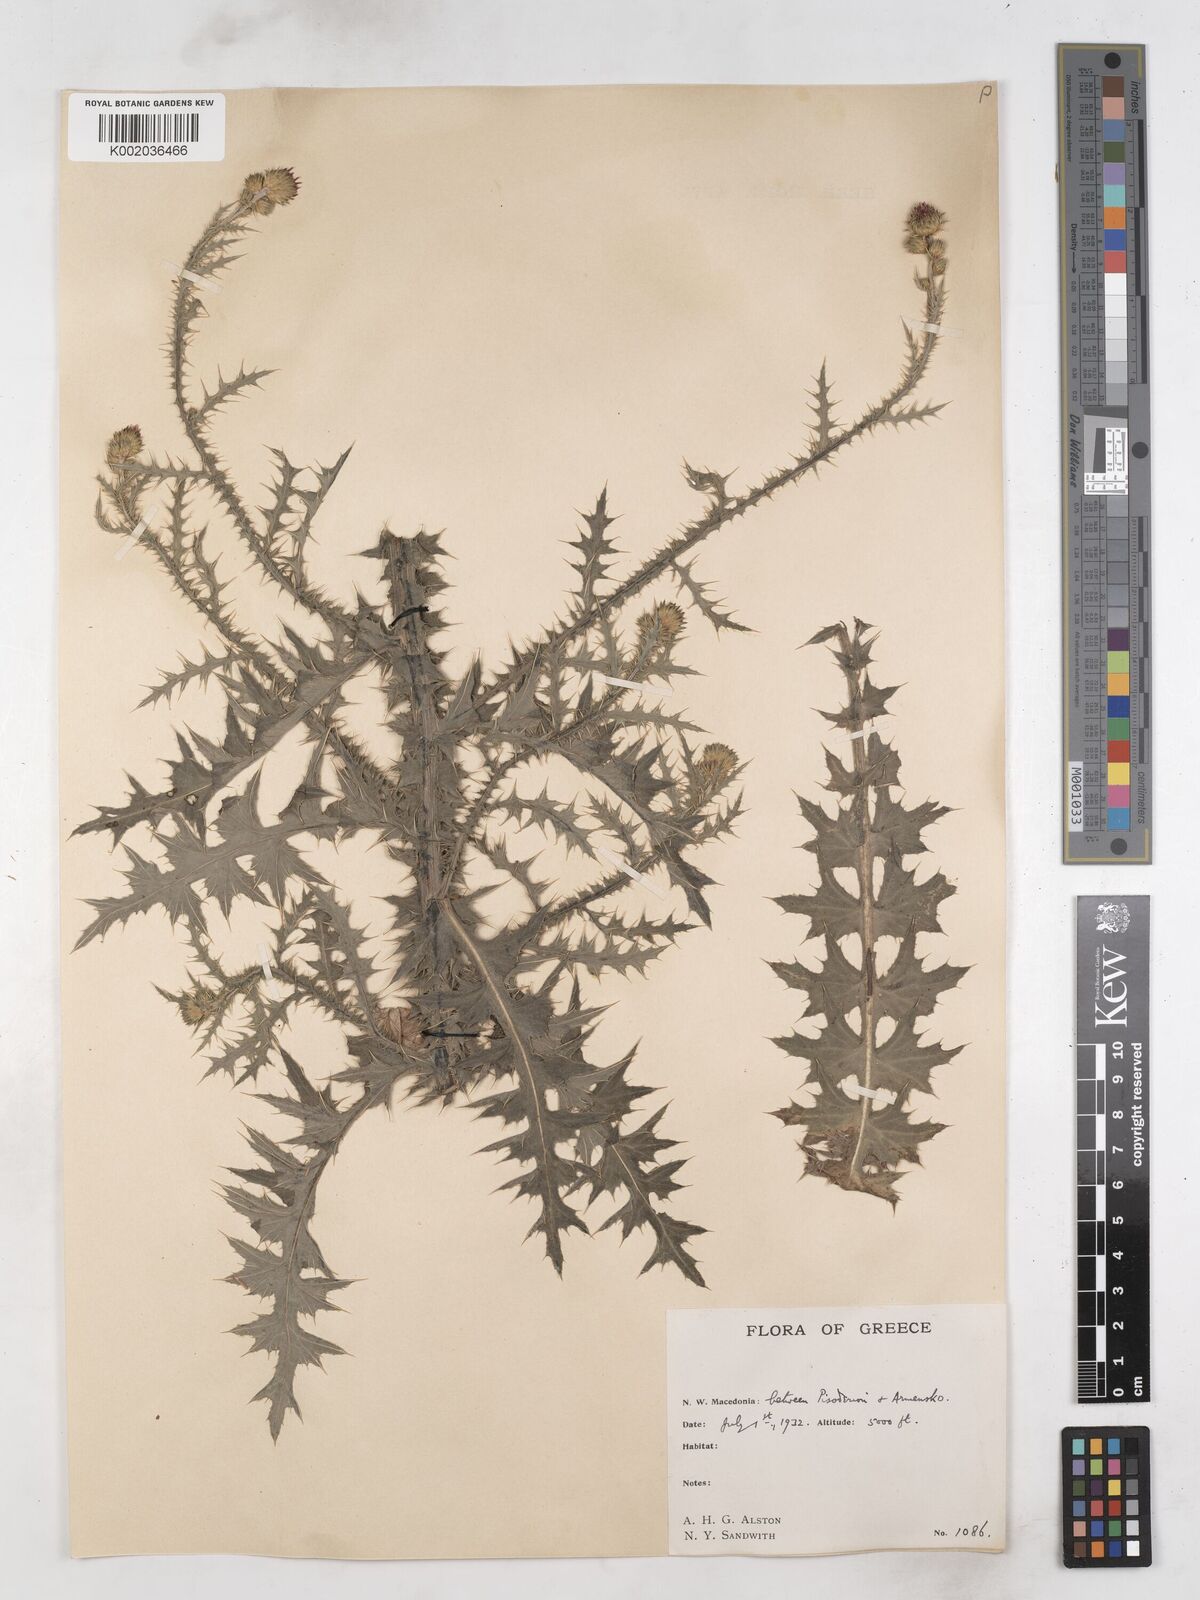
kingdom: Plantae
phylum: Tracheophyta
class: Magnoliopsida
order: Asterales
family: Asteraceae
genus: Carduus
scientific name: Carduus
